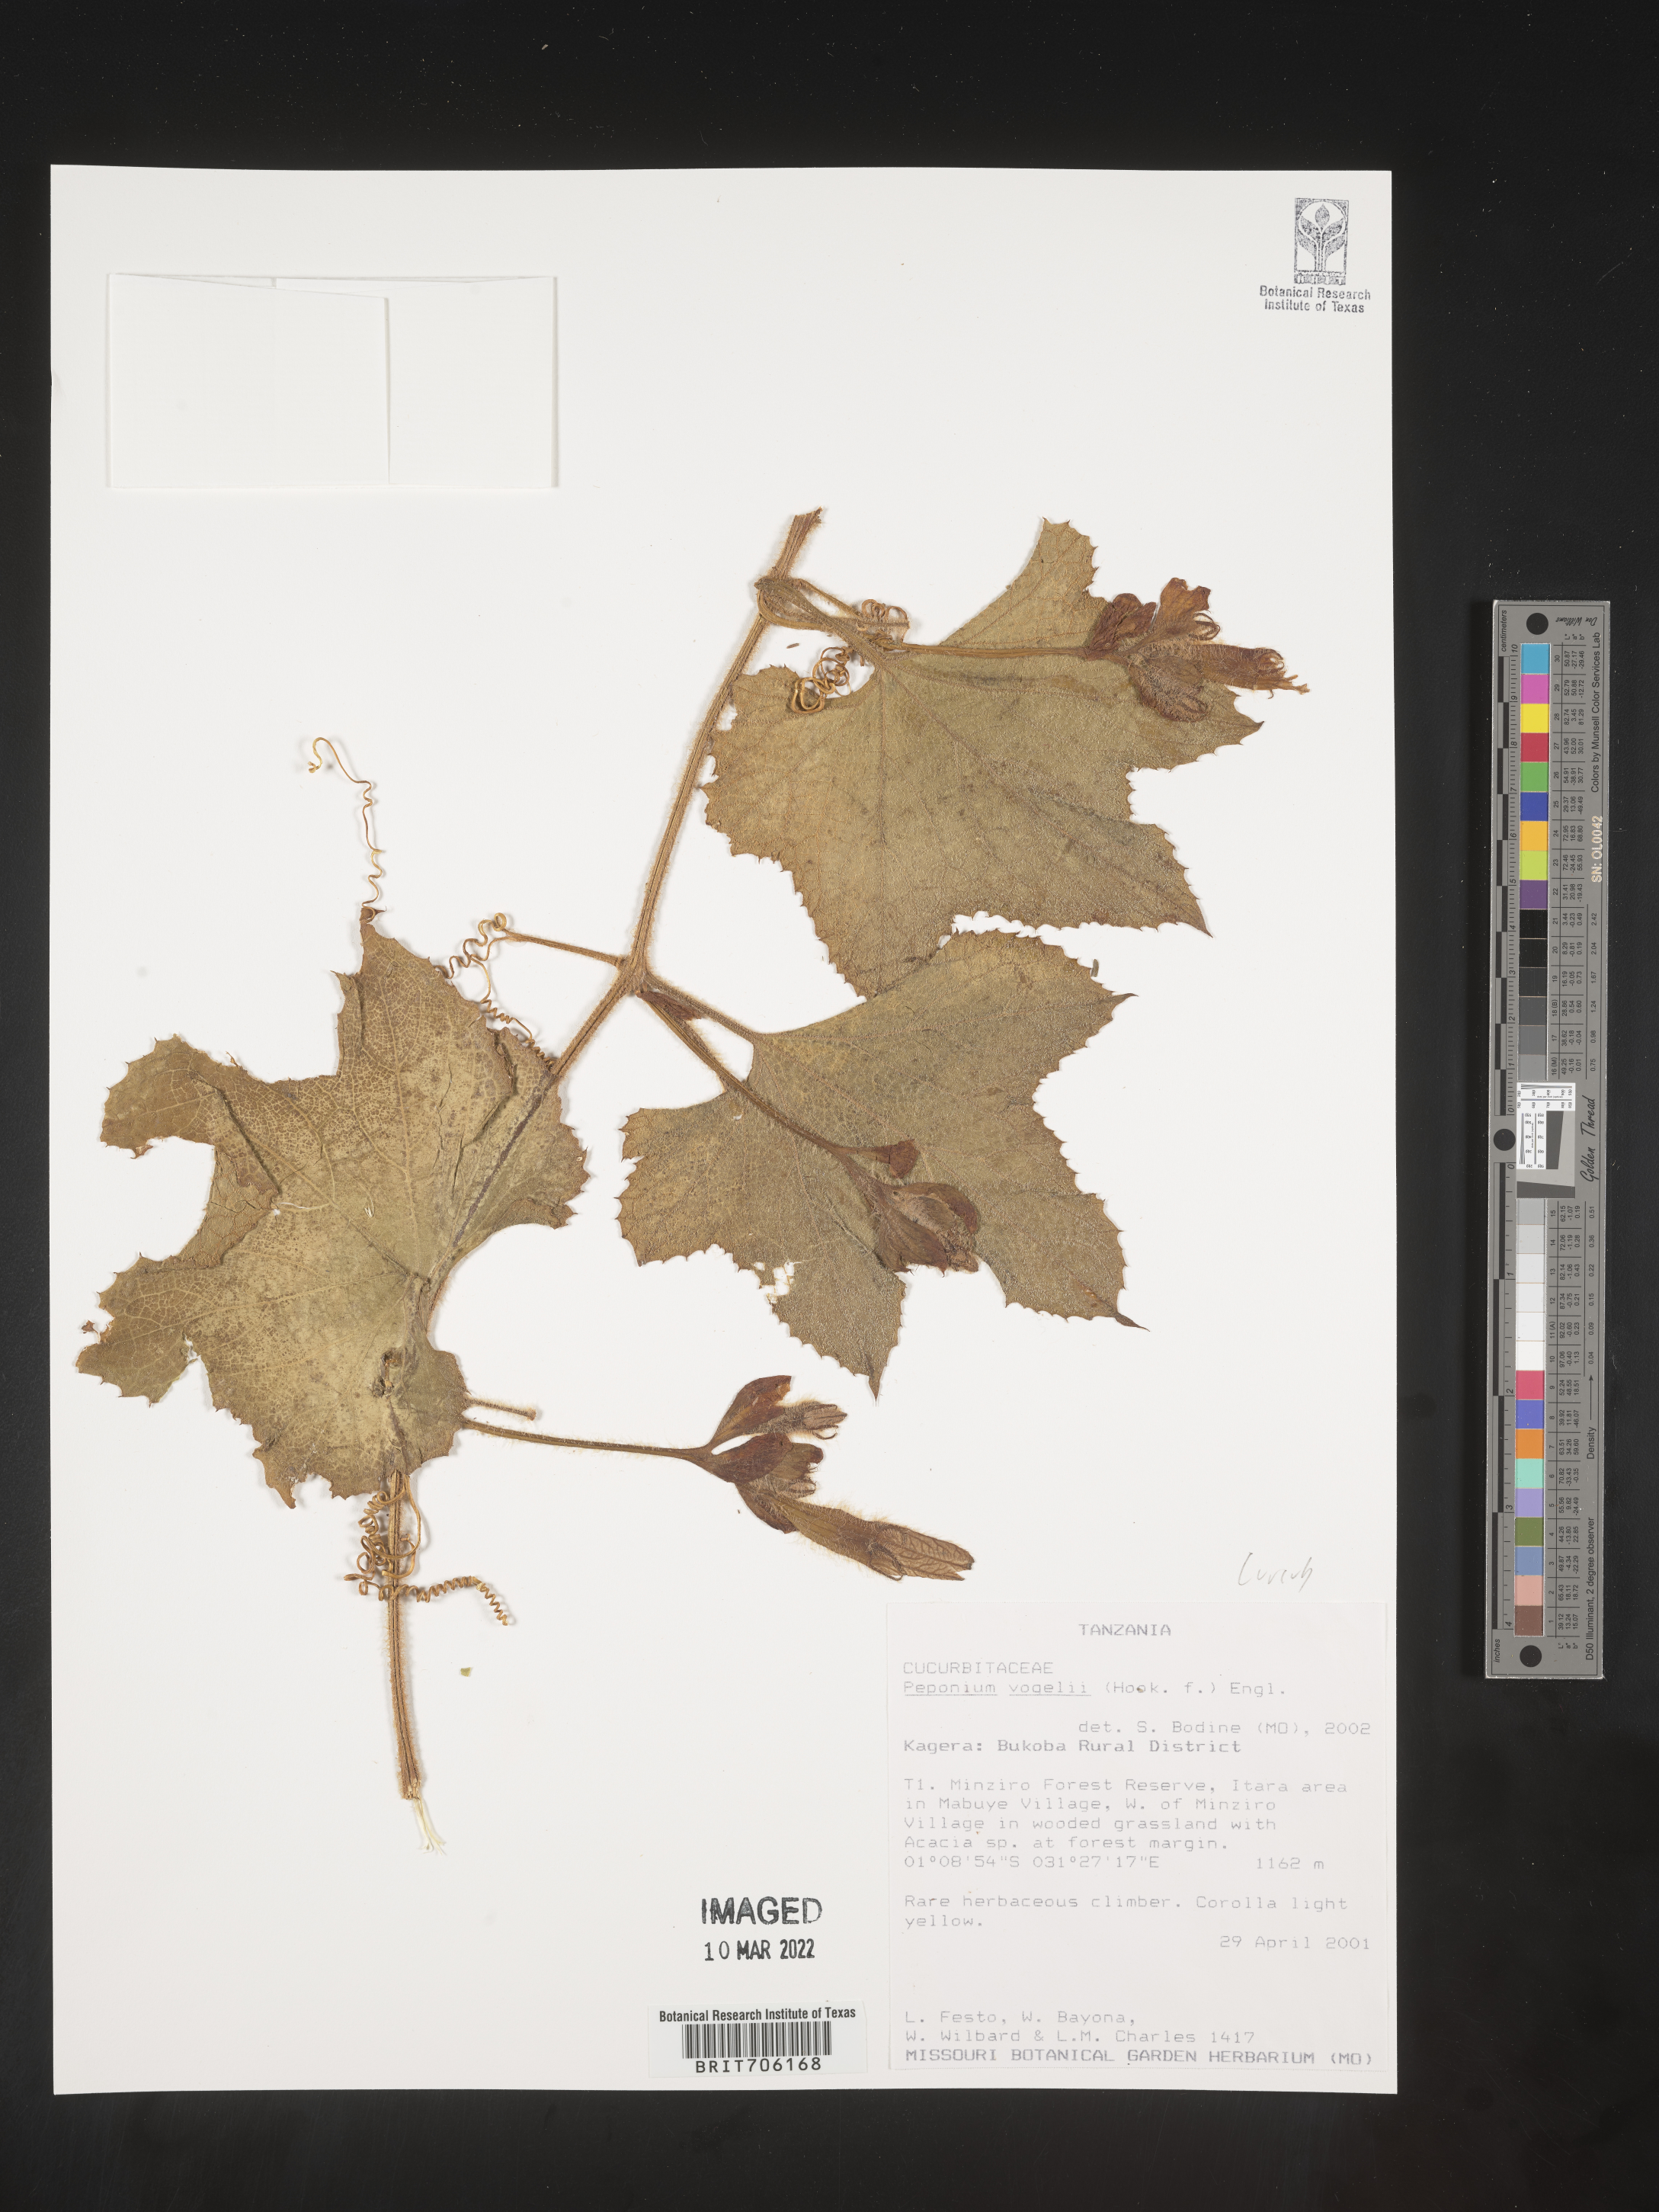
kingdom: Plantae
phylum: Tracheophyta
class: Magnoliopsida
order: Cucurbitales
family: Cucurbitaceae
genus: Peponium
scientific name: Peponium
